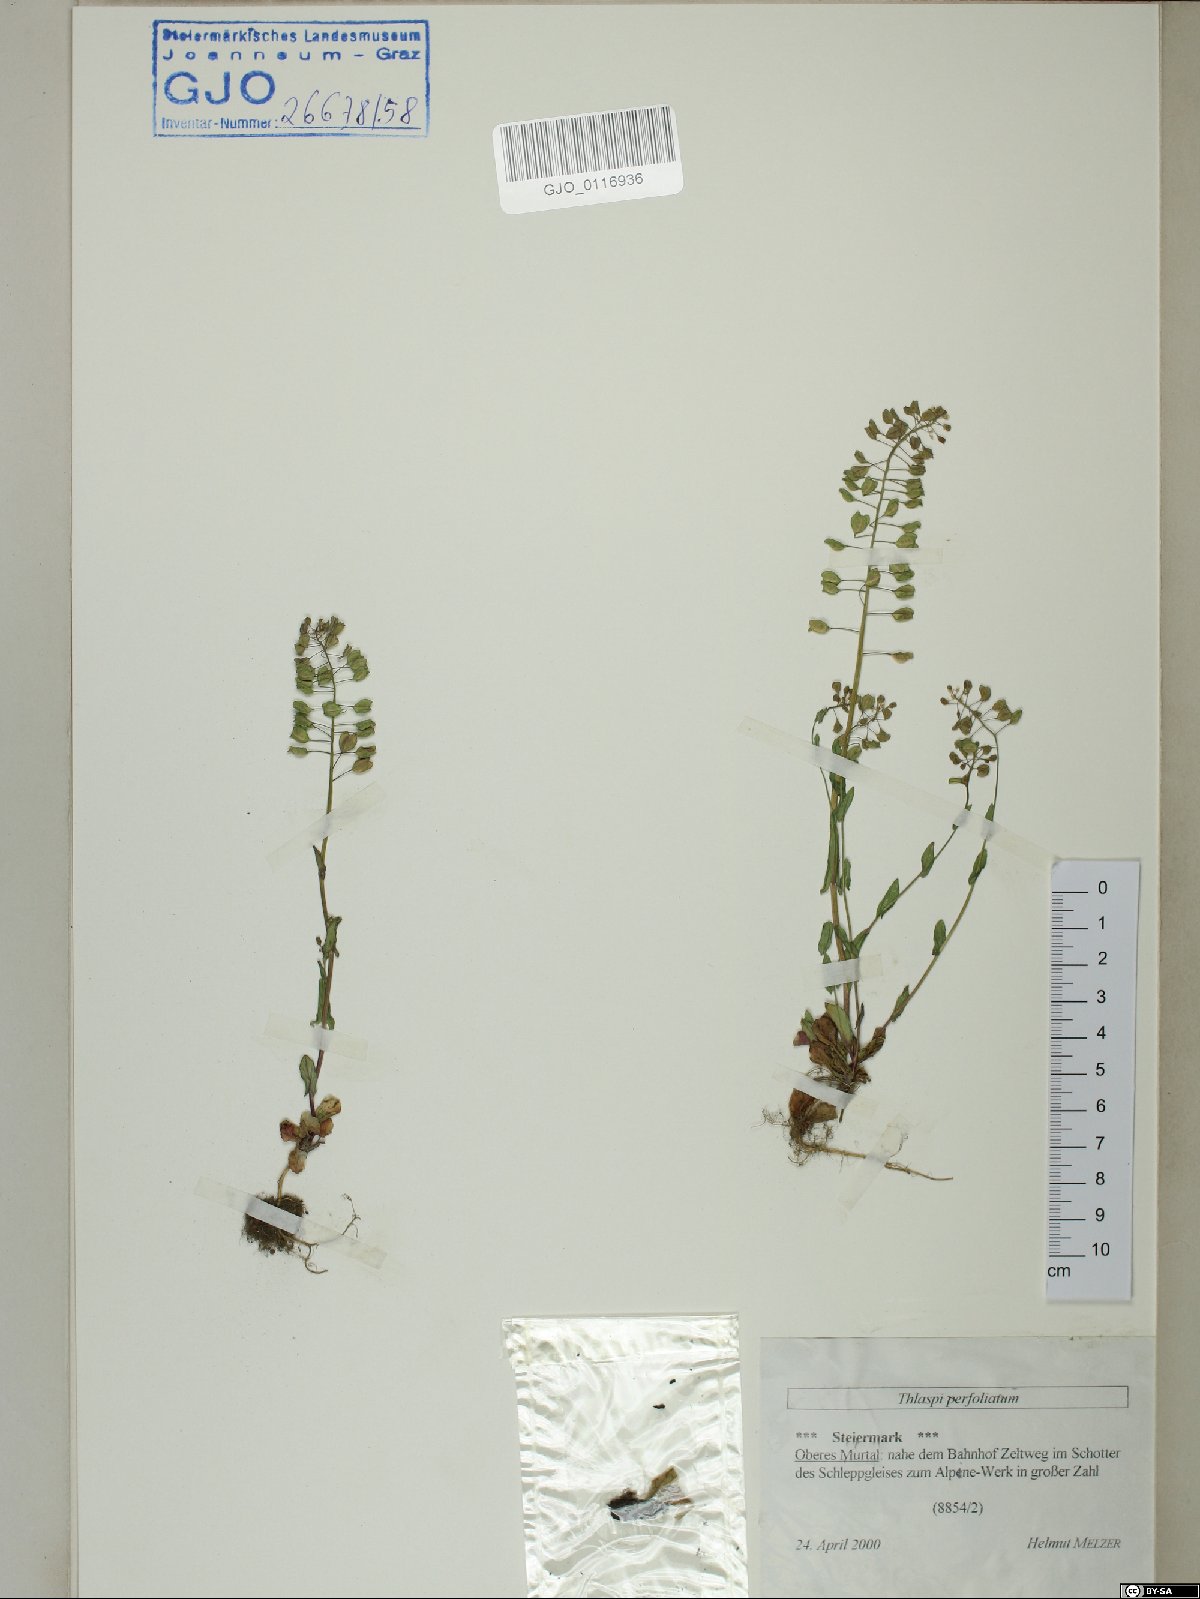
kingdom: Plantae
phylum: Tracheophyta
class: Magnoliopsida
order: Brassicales
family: Brassicaceae
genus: Noccaea
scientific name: Noccaea perfoliata
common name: Perfoliate pennycress
